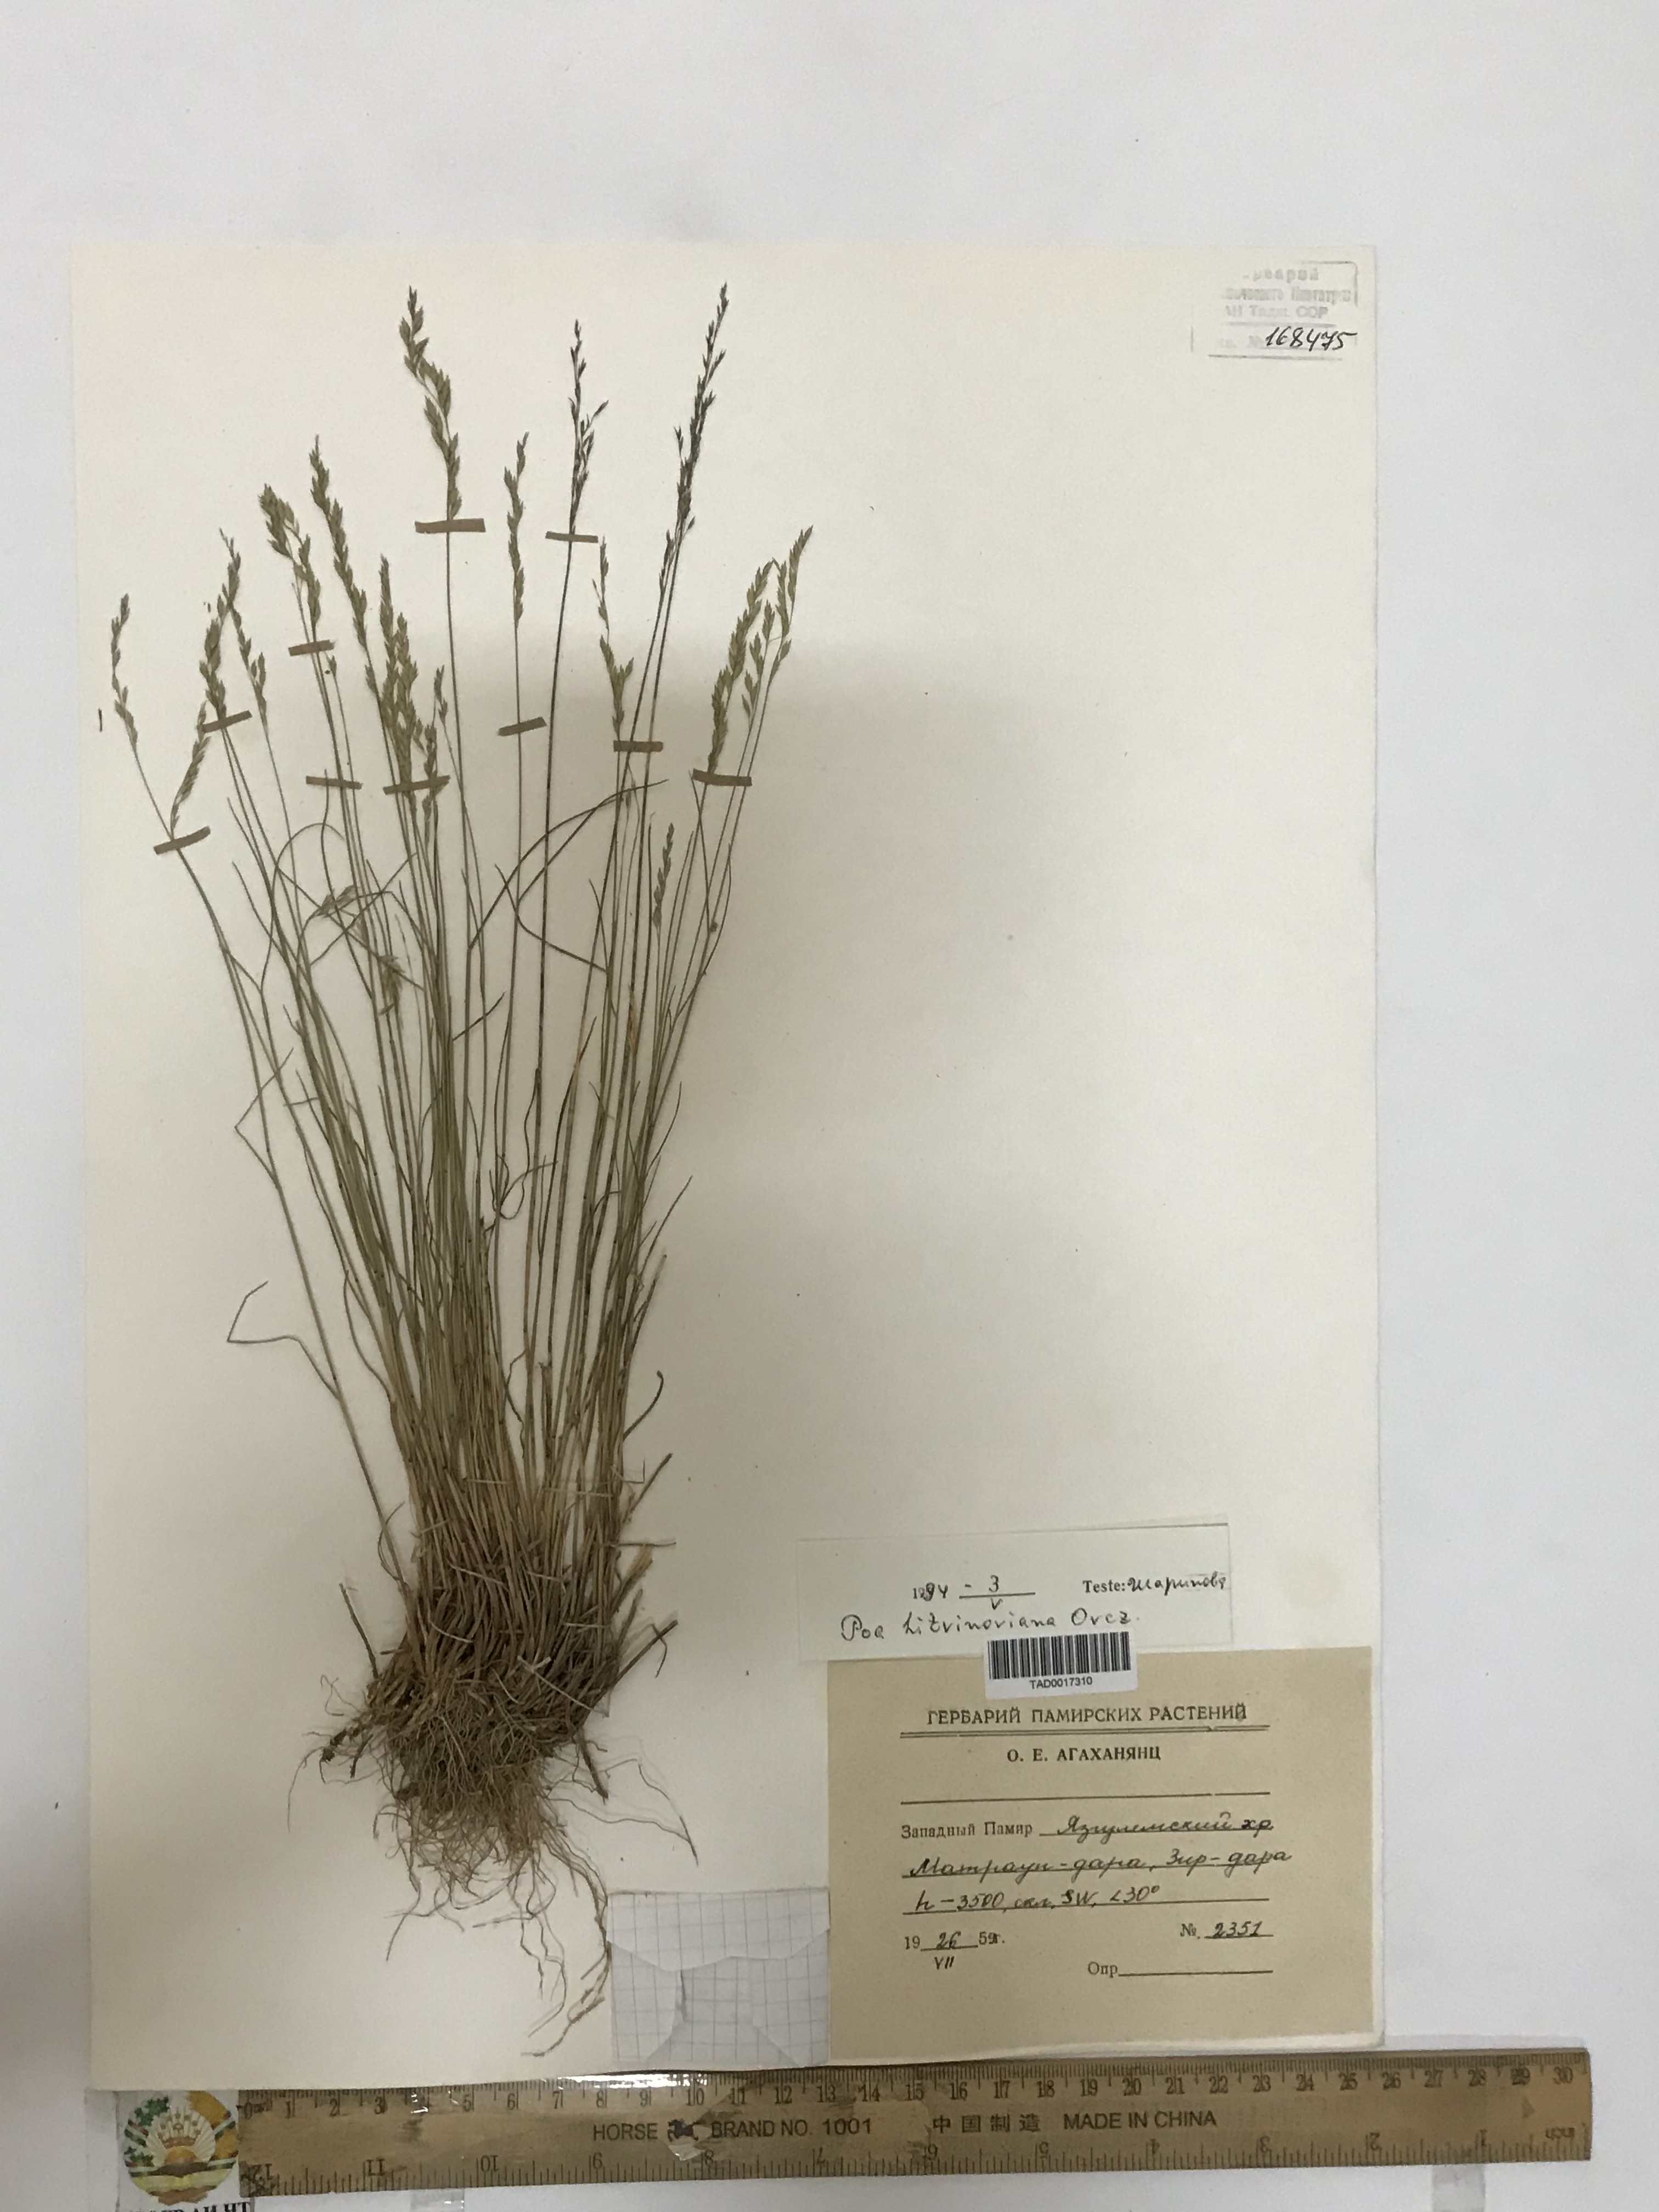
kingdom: Plantae
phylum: Tracheophyta
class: Liliopsida
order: Poales
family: Poaceae
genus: Poa
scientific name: Poa glauca
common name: Glaucous bluegrass
